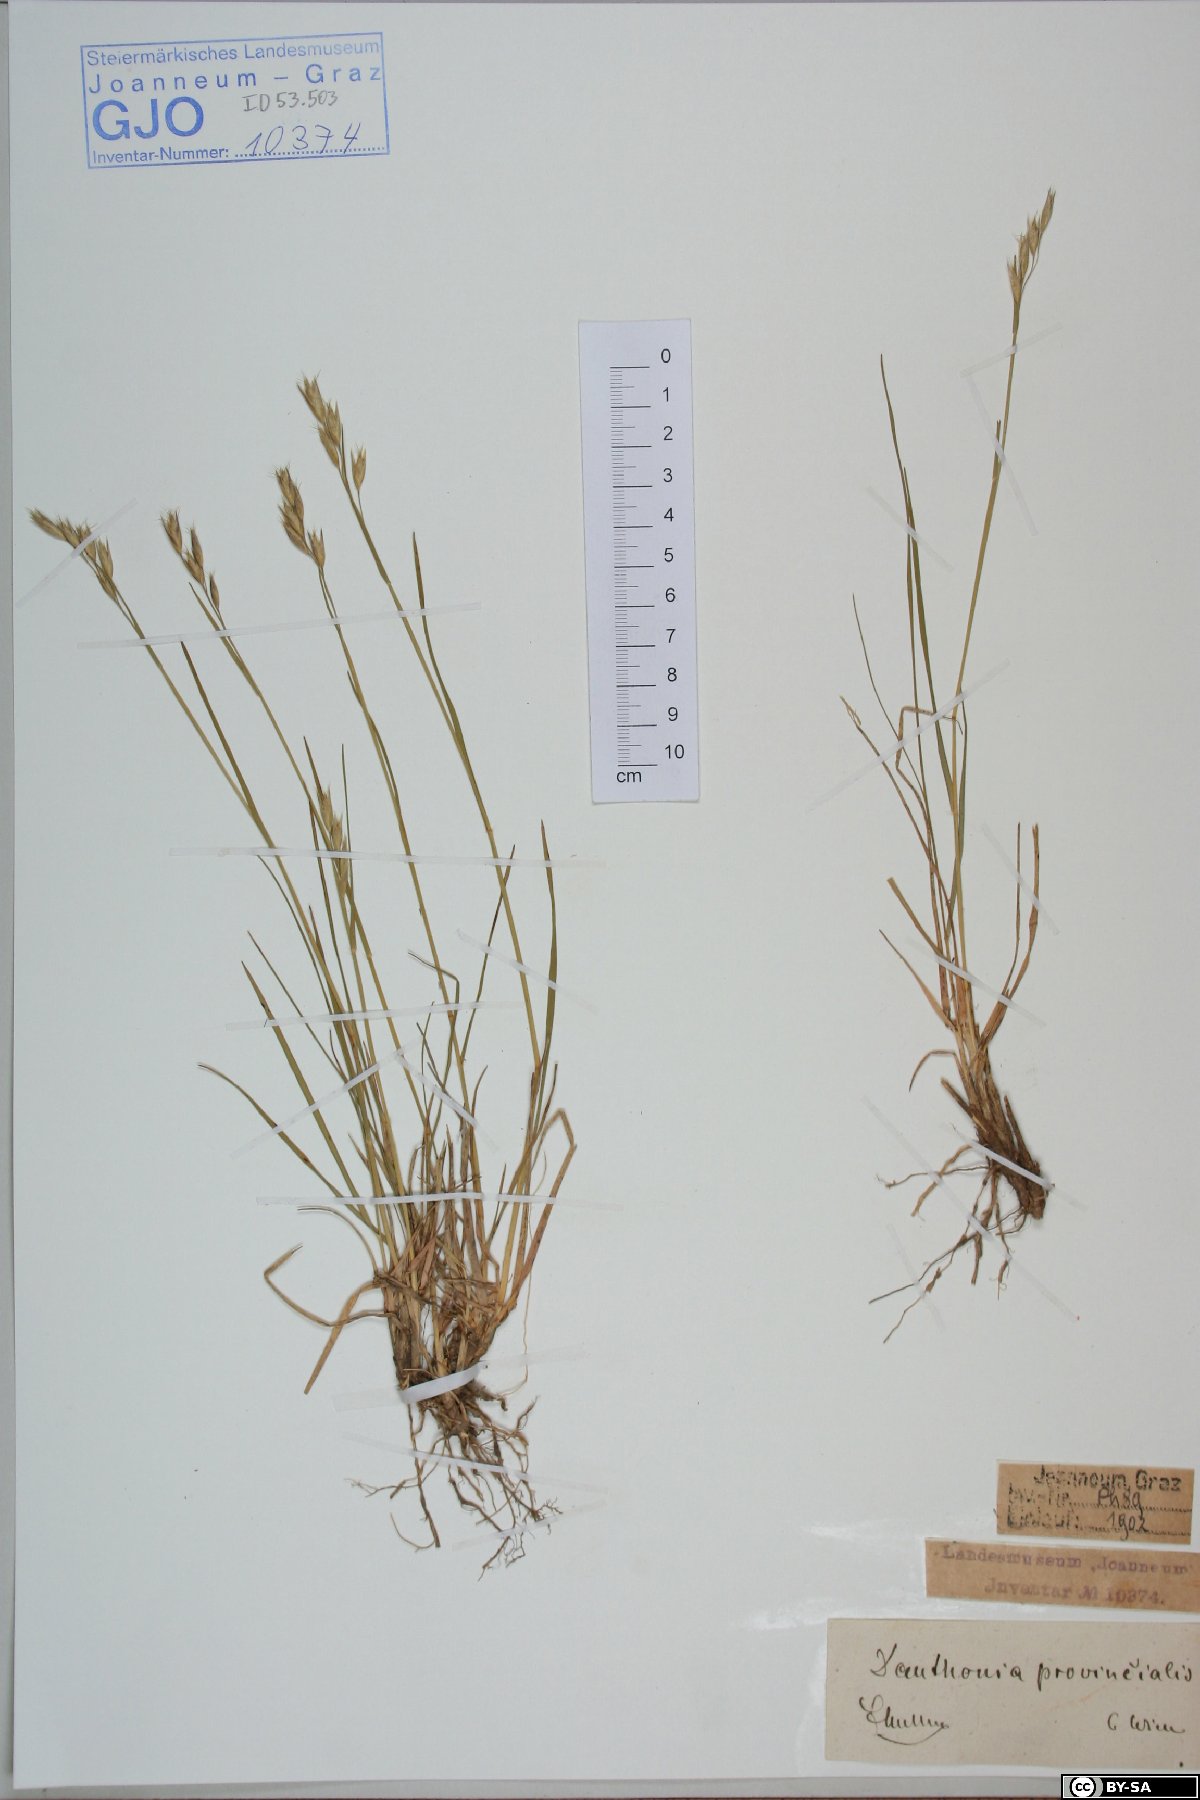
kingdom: Plantae
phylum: Tracheophyta
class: Liliopsida
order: Poales
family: Poaceae
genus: Danthonia
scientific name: Danthonia alpina
